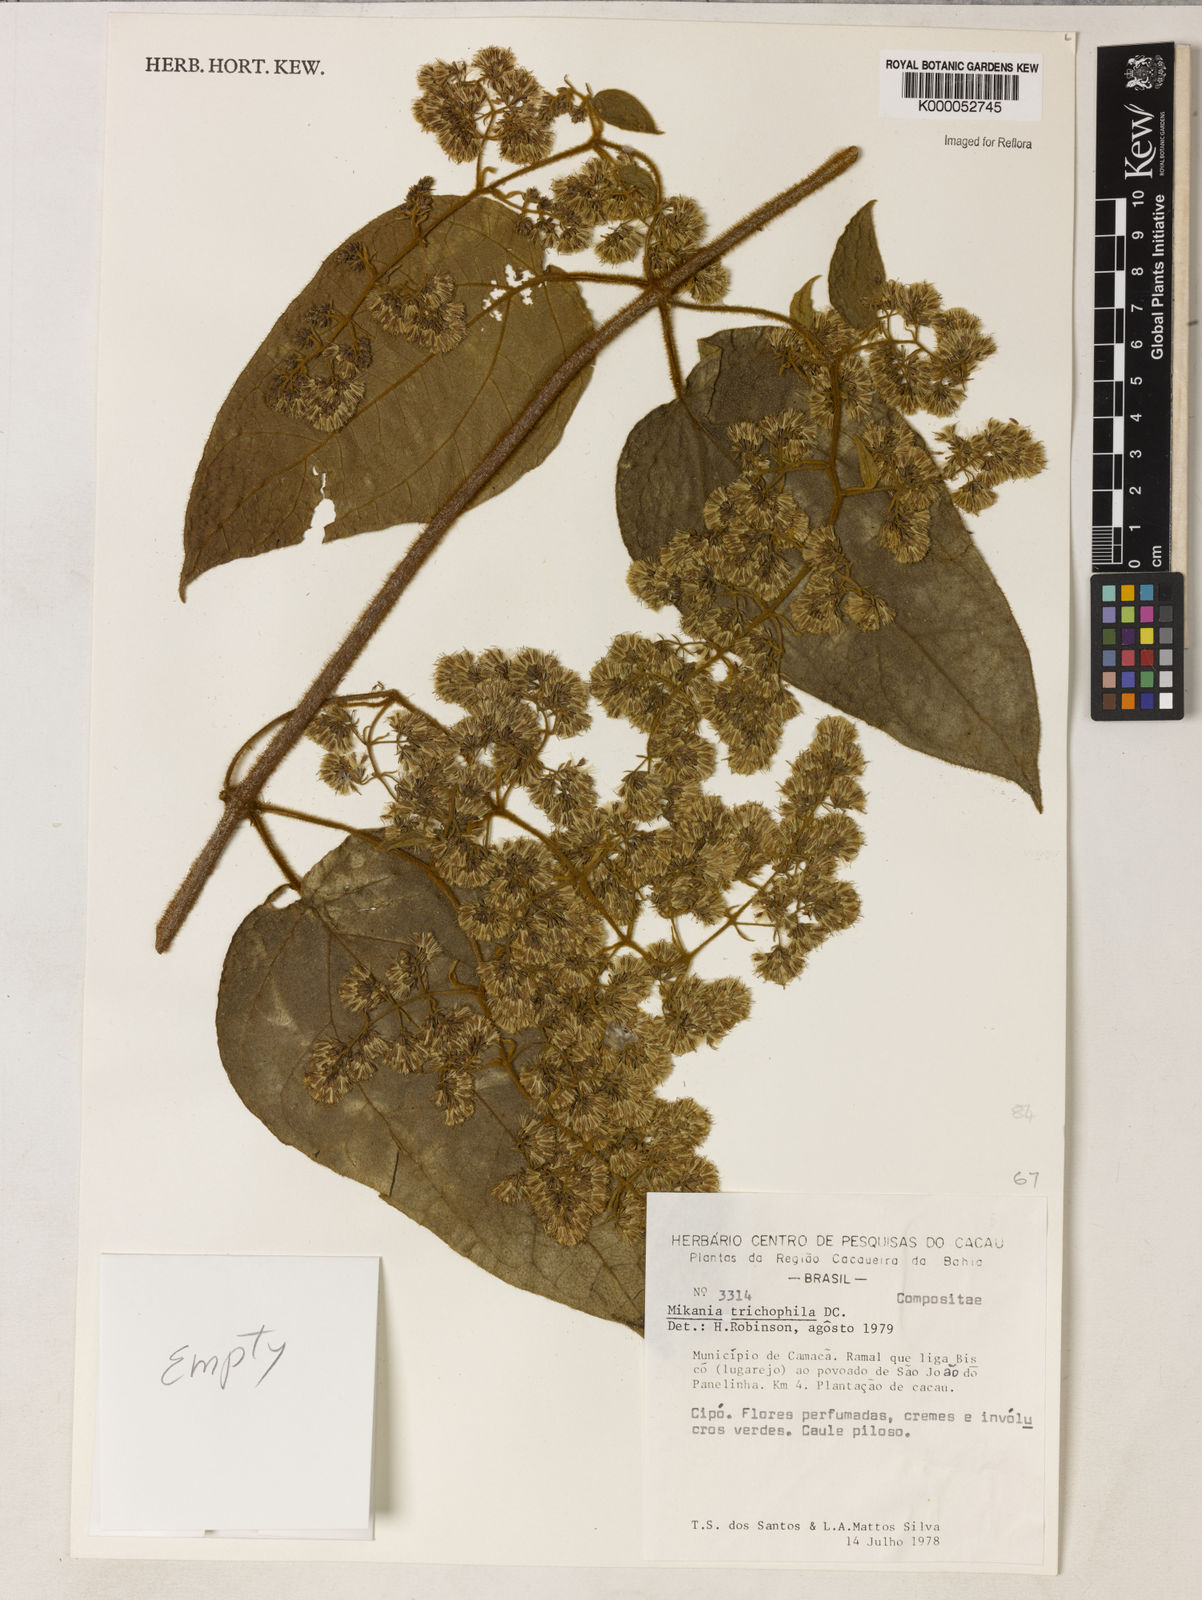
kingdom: Plantae
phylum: Tracheophyta
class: Magnoliopsida
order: Asterales
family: Asteraceae
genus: Mikania
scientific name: Mikania trichophila
